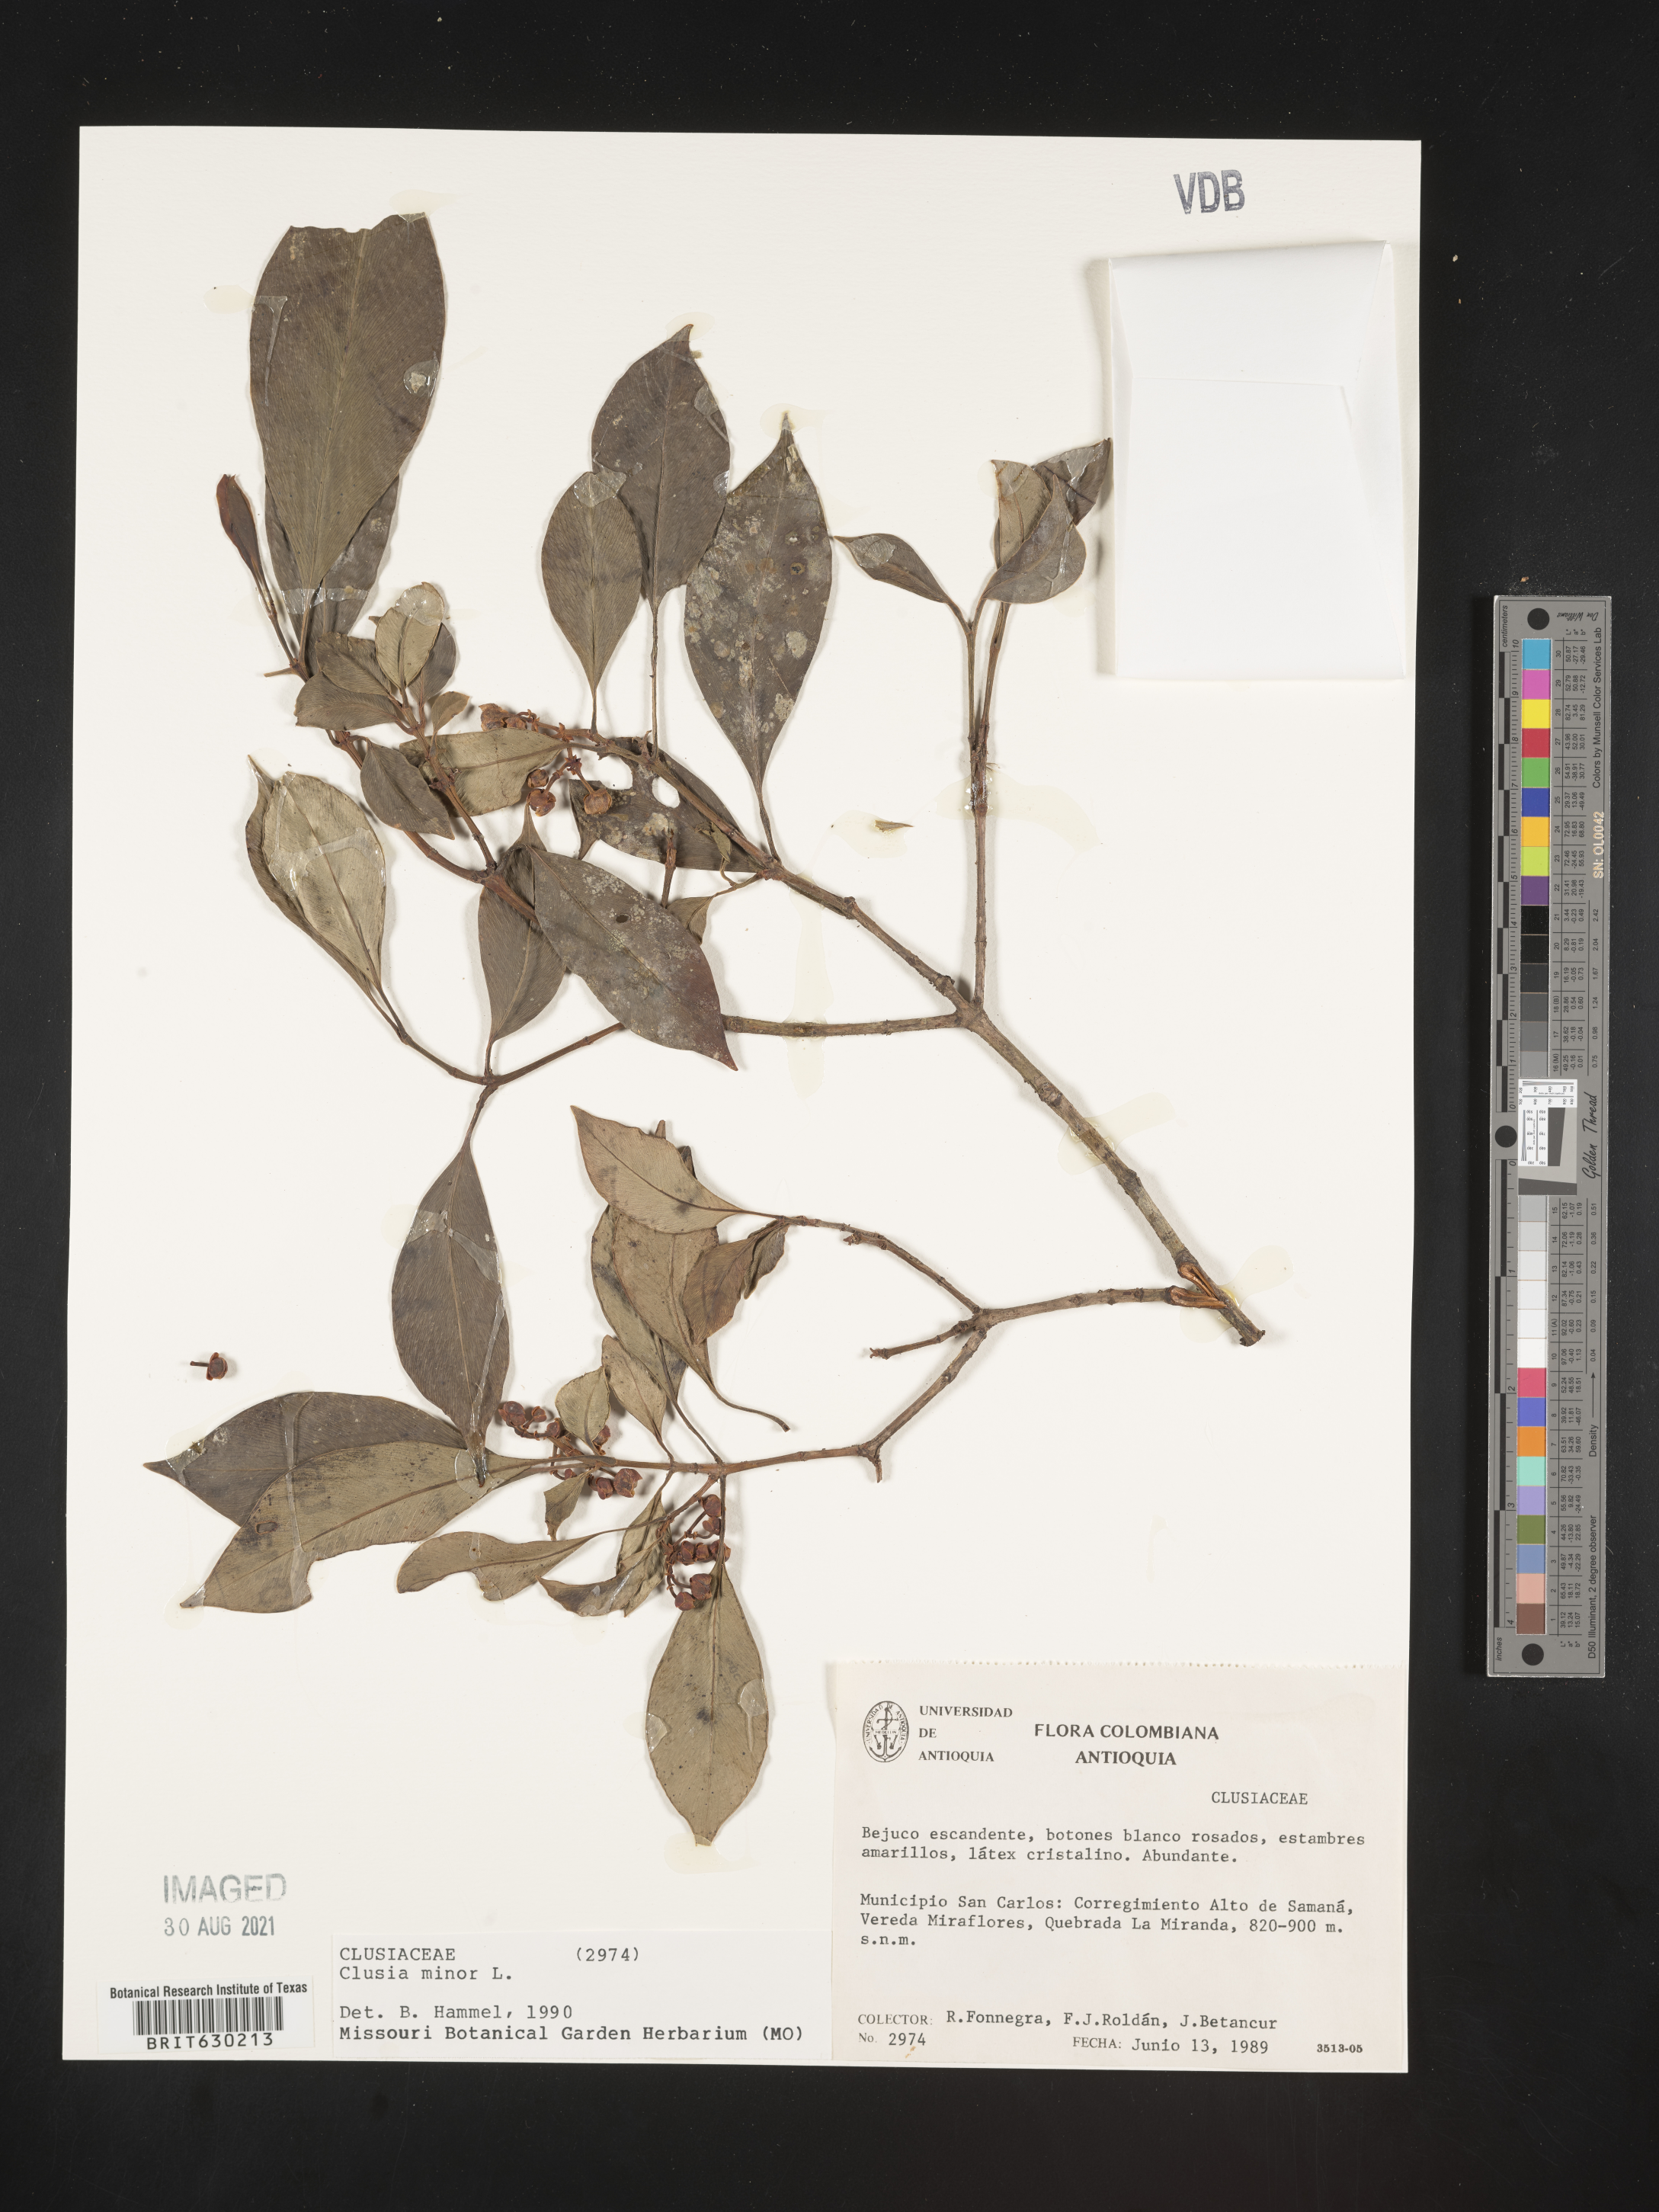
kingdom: Plantae
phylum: Tracheophyta
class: Magnoliopsida
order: Malpighiales
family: Clusiaceae
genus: Clusia
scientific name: Clusia minor
